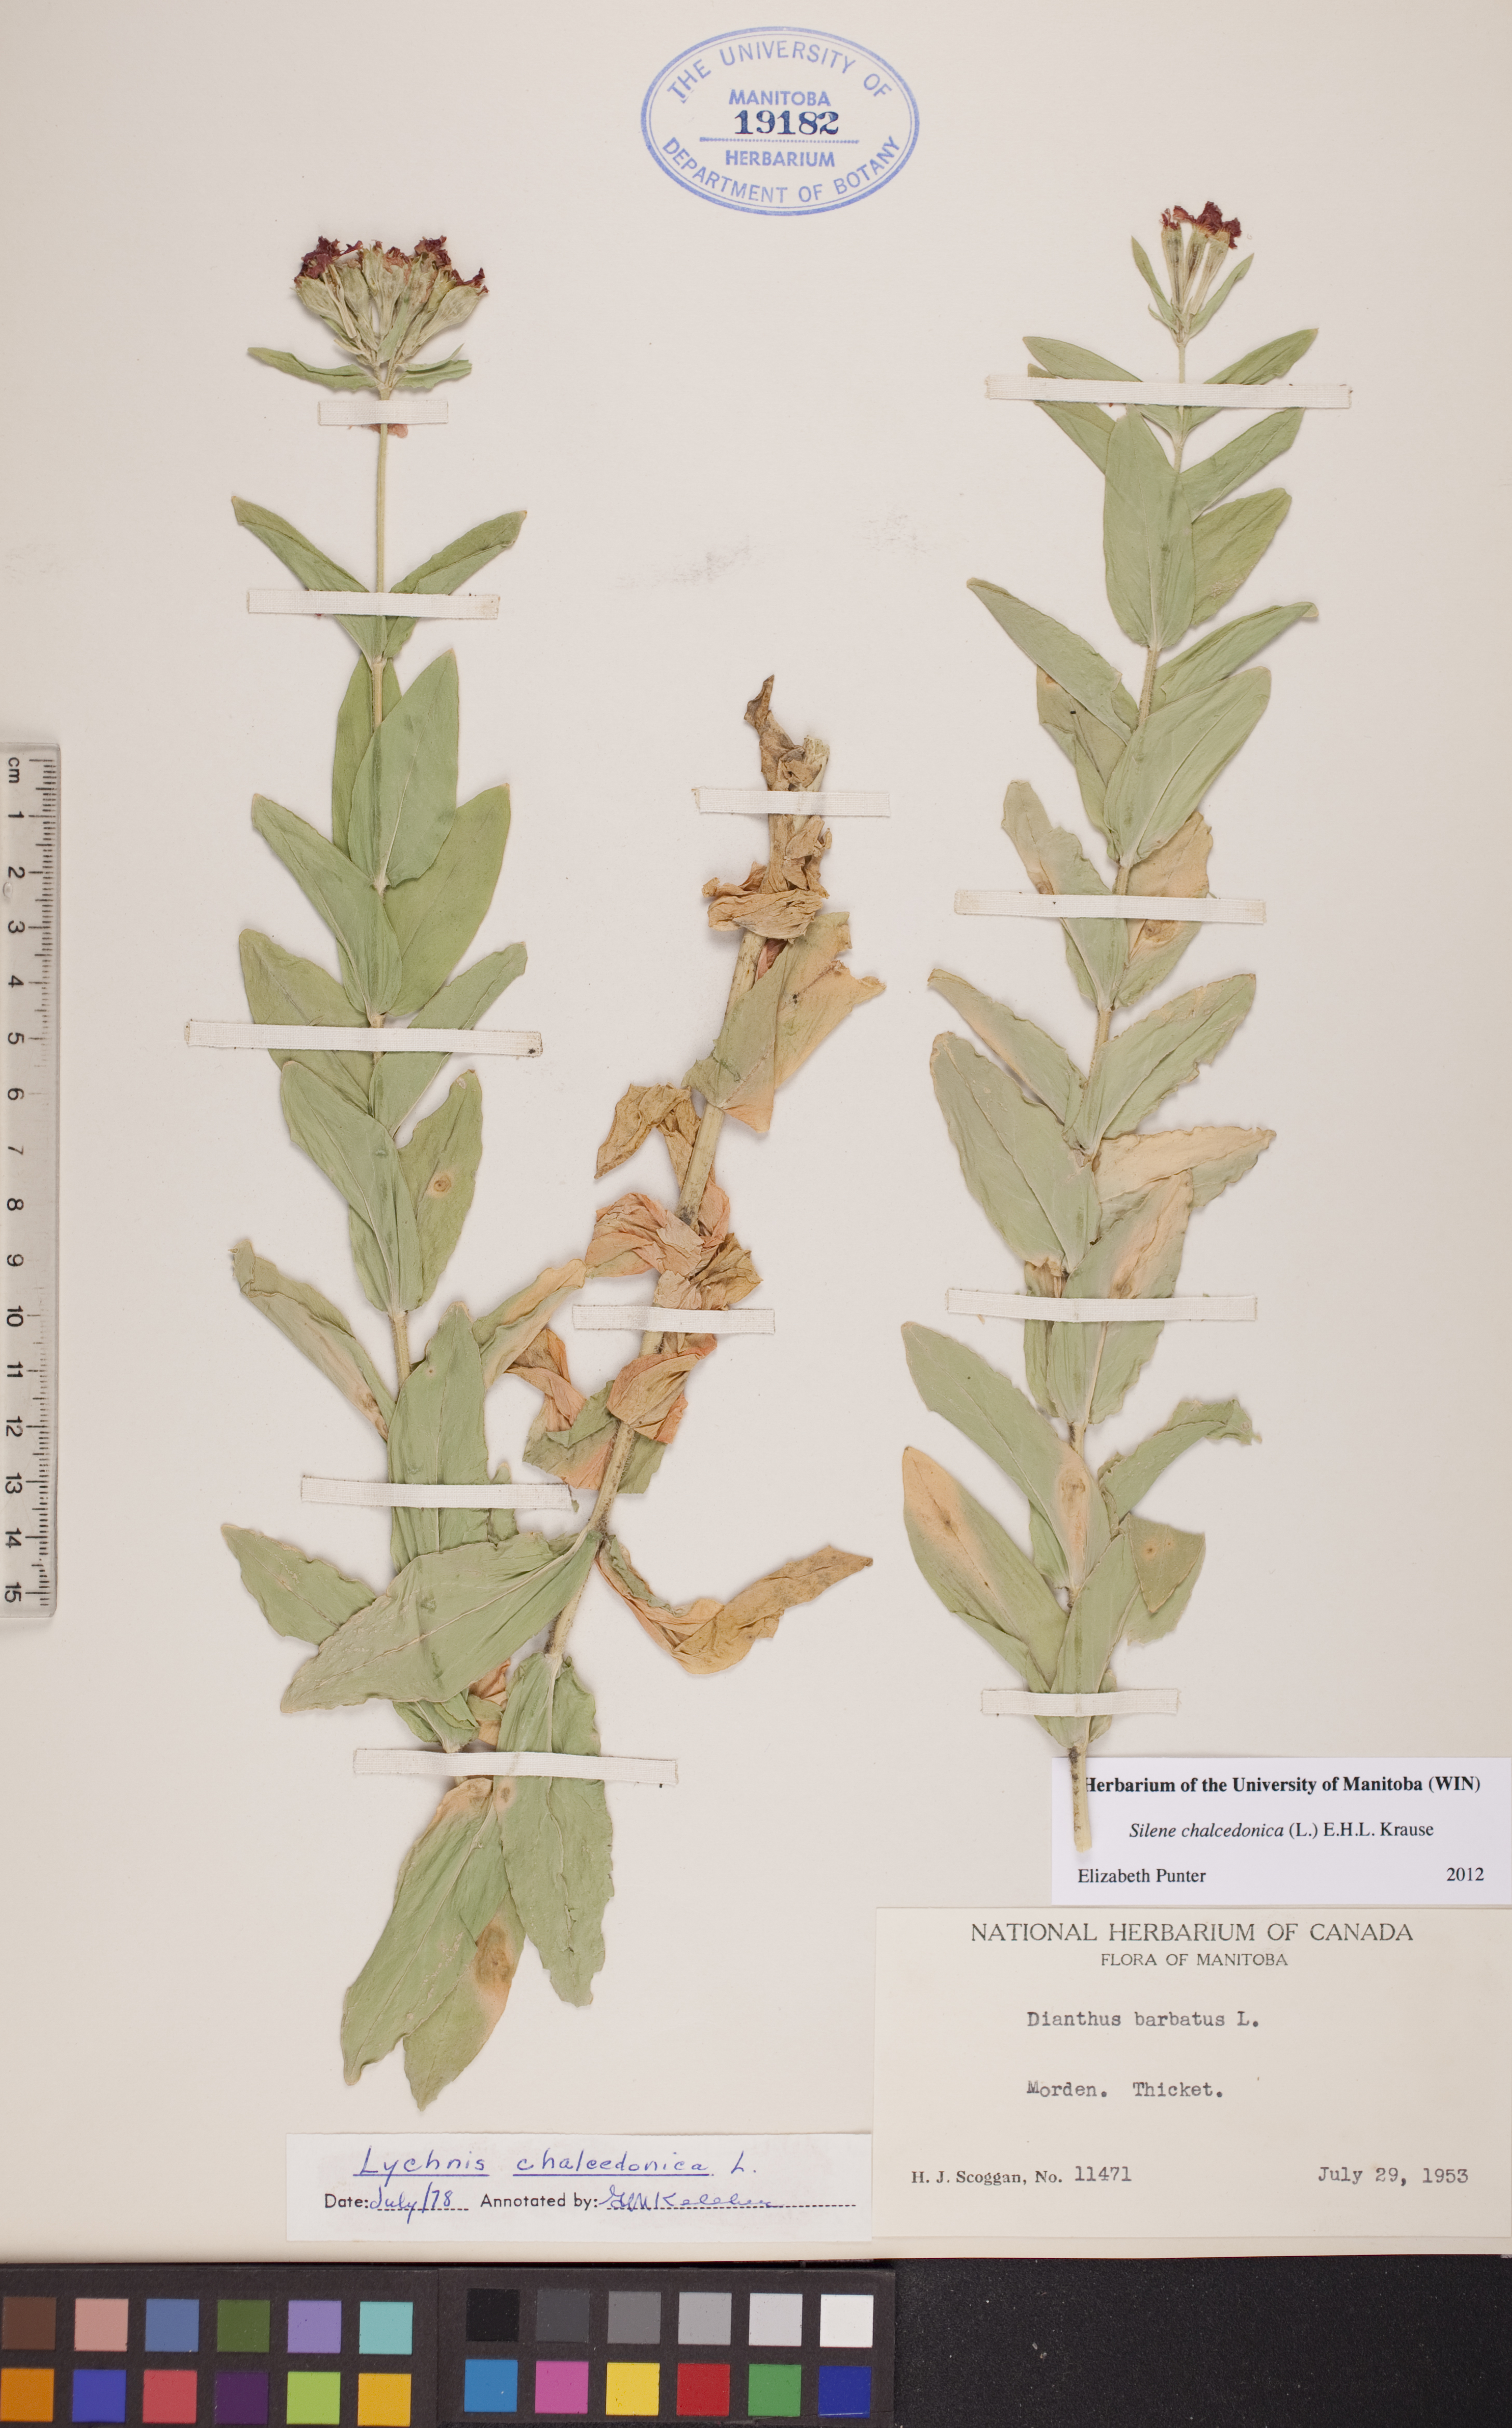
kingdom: Plantae
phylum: Tracheophyta
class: Magnoliopsida
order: Caryophyllales
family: Caryophyllaceae
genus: Silene
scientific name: Silene chalcedonica
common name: Maltese-cross
